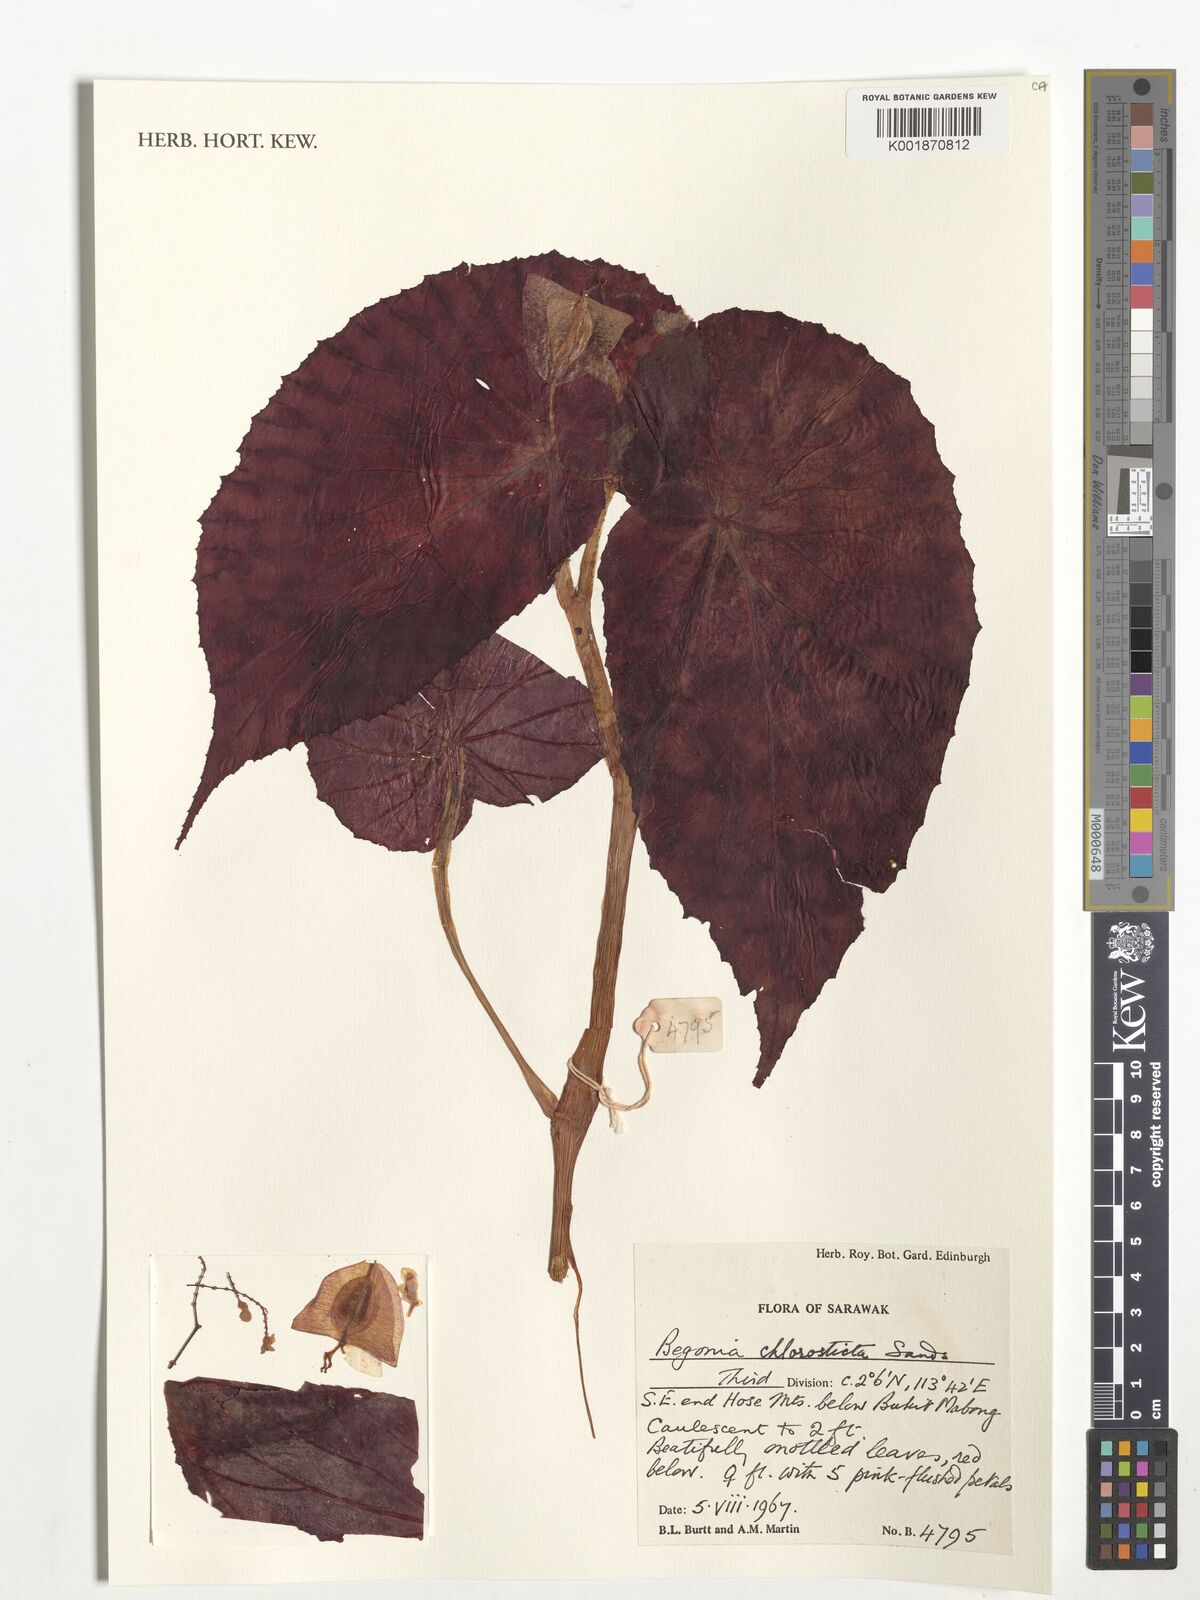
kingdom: Plantae
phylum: Tracheophyta
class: Magnoliopsida
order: Cucurbitales
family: Begoniaceae
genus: Begonia
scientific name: Begonia chlorosticta
